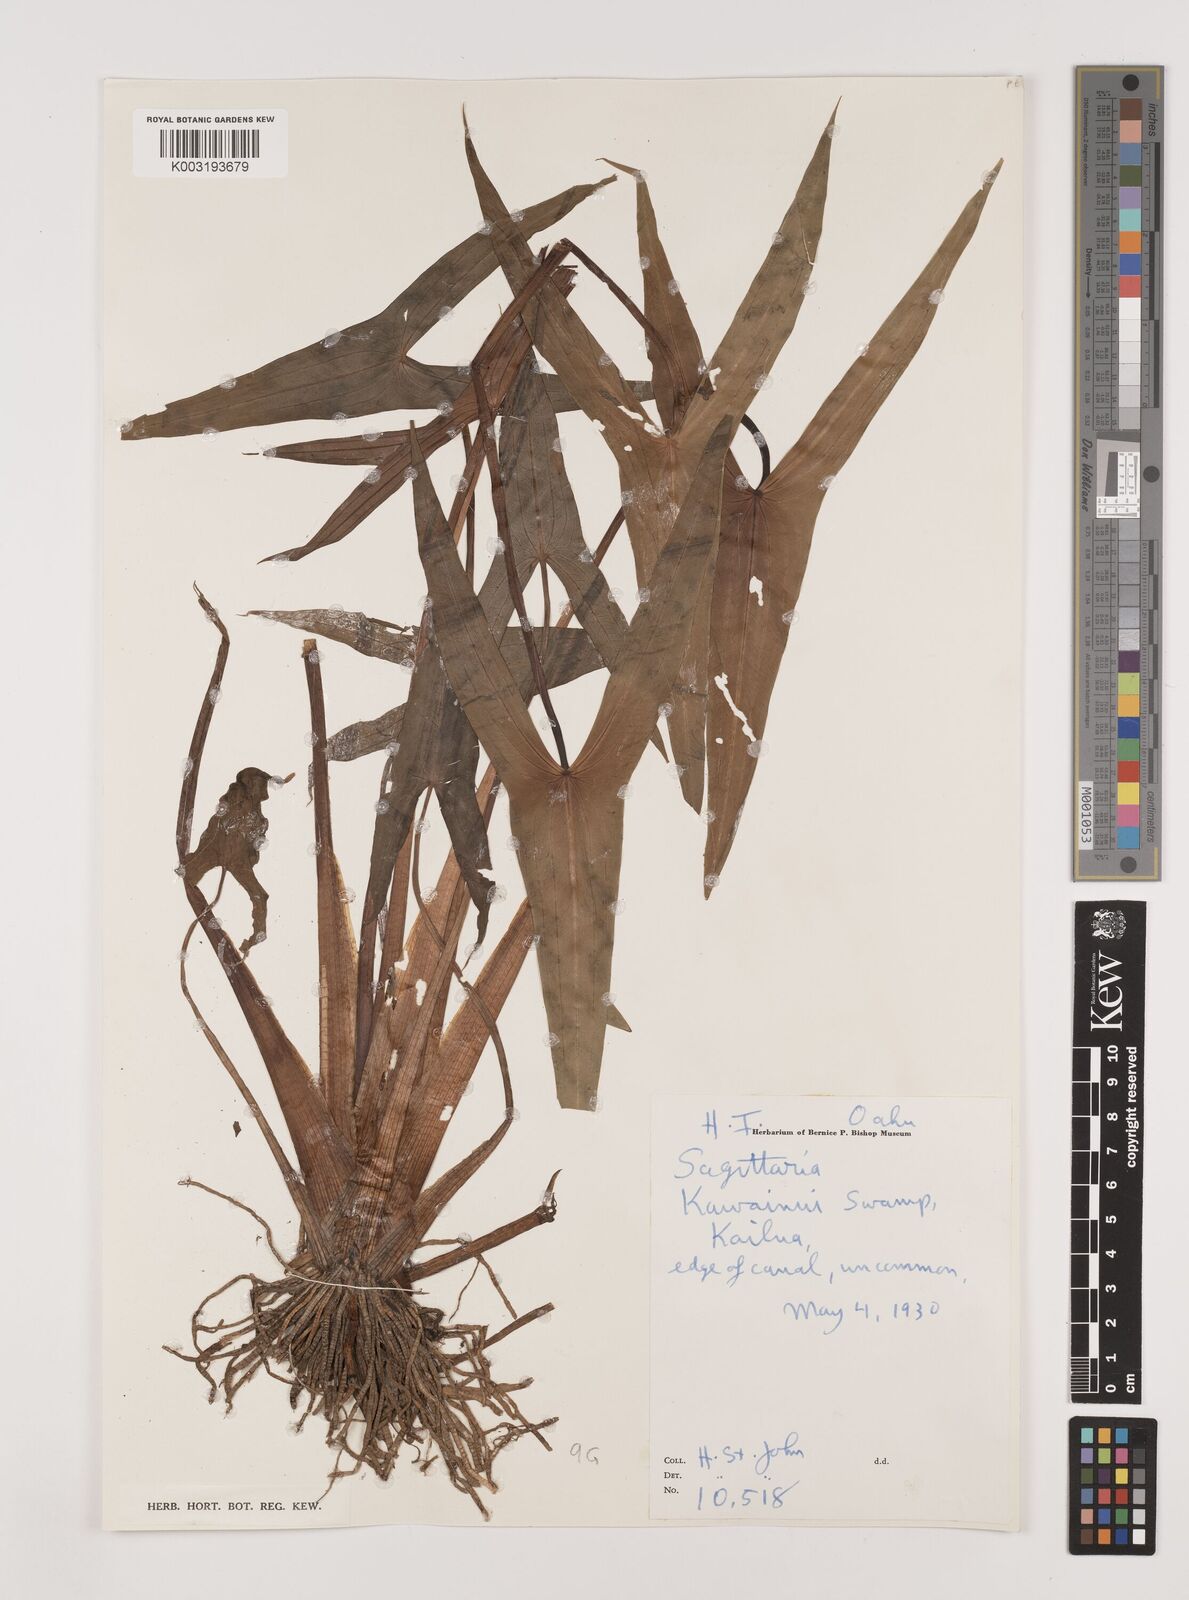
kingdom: Plantae
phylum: Tracheophyta
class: Liliopsida
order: Alismatales
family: Alismataceae
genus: Sagittaria
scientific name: Sagittaria
